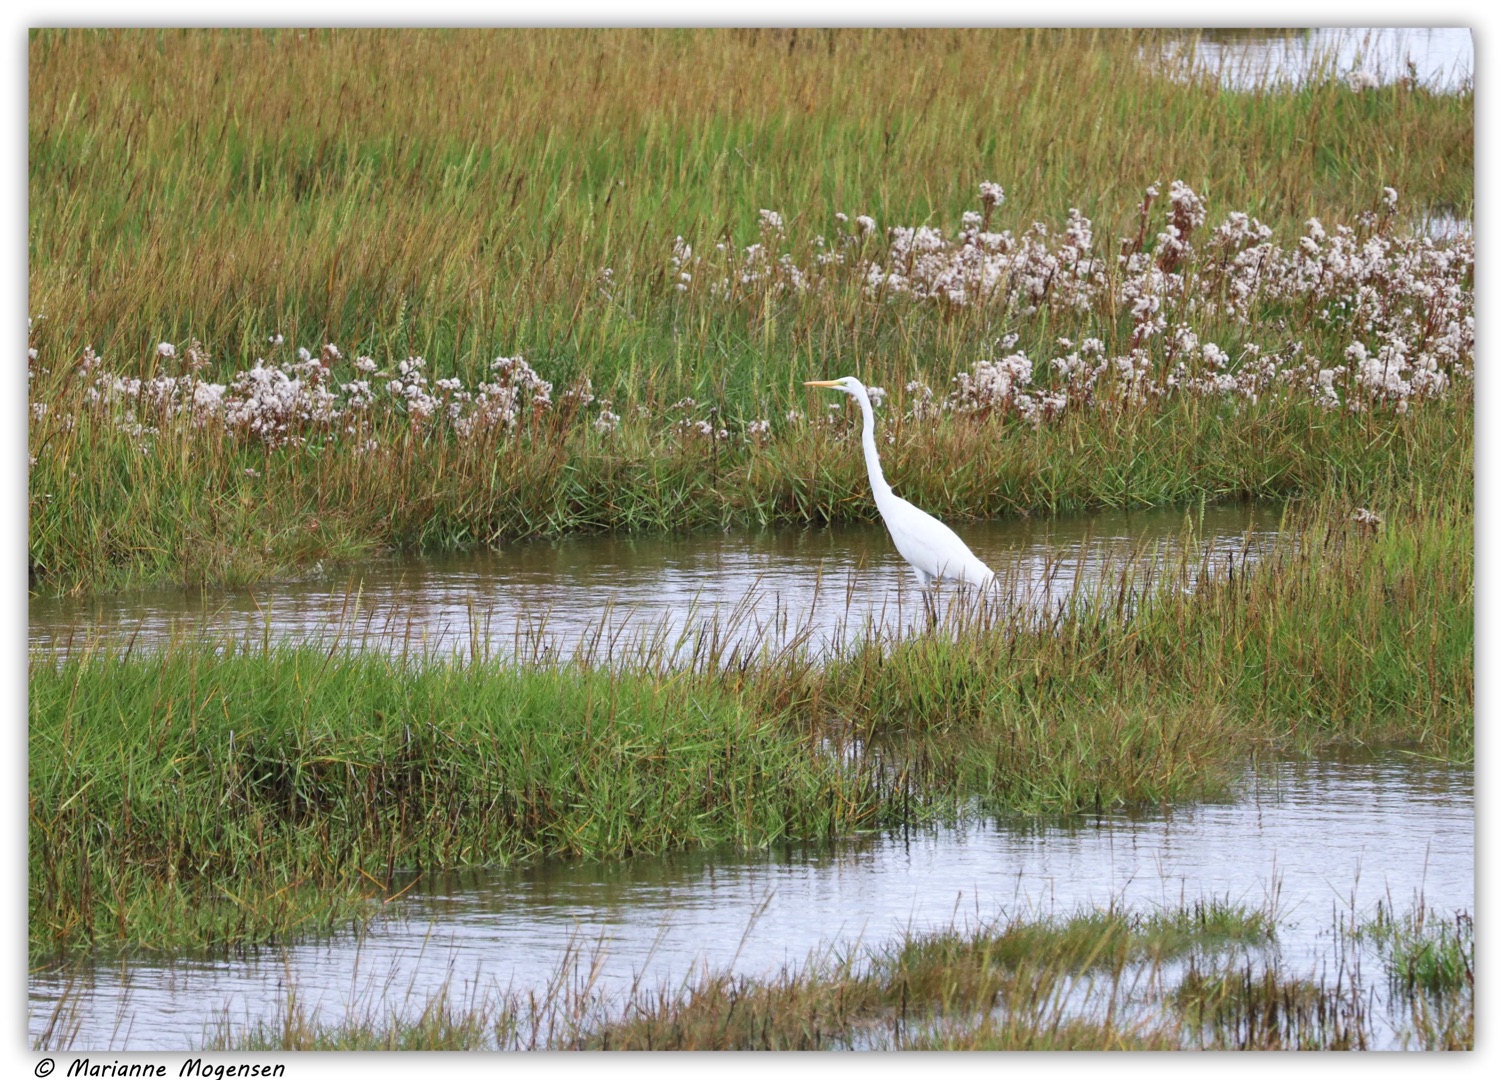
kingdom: Animalia
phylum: Chordata
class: Aves
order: Pelecaniformes
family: Ardeidae
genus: Ardea
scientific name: Ardea alba
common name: Sølvhejre
